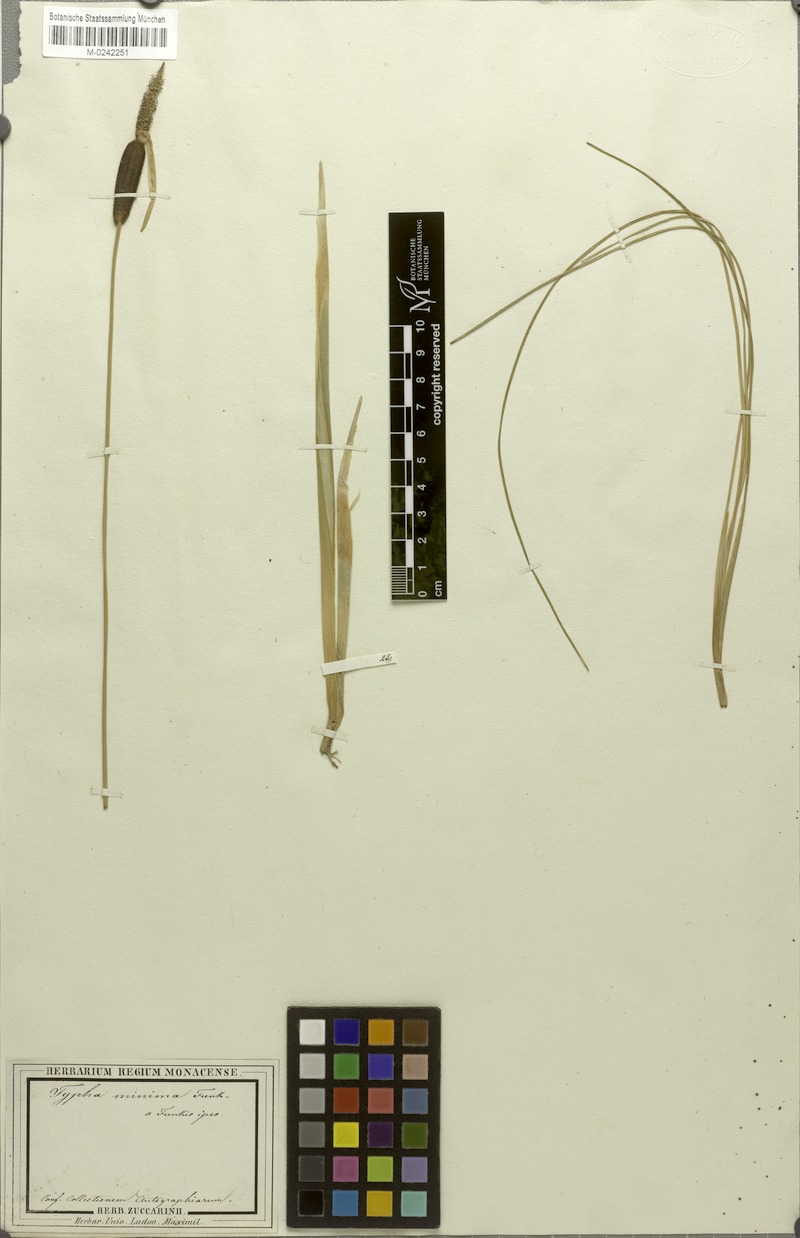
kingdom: Plantae
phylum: Tracheophyta
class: Liliopsida
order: Poales
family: Typhaceae
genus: Typha
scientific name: Typha minima
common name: Dwarf bulrush
